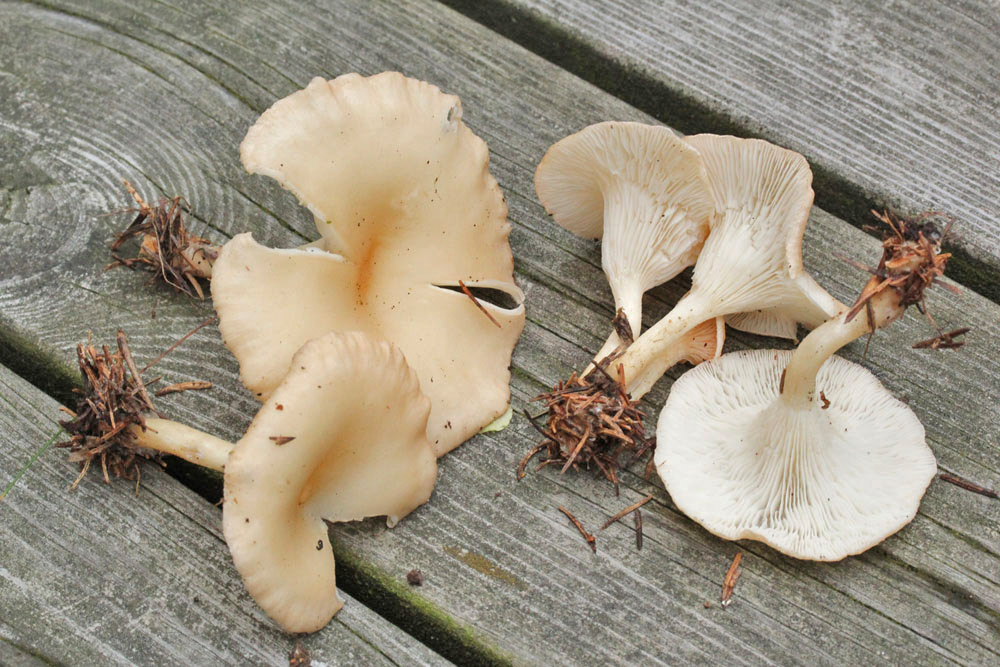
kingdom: Fungi
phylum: Basidiomycota
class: Agaricomycetes
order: Agaricales
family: Tricholomataceae
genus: Infundibulicybe
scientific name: Infundibulicybe gibba
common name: almindelig tragthat
